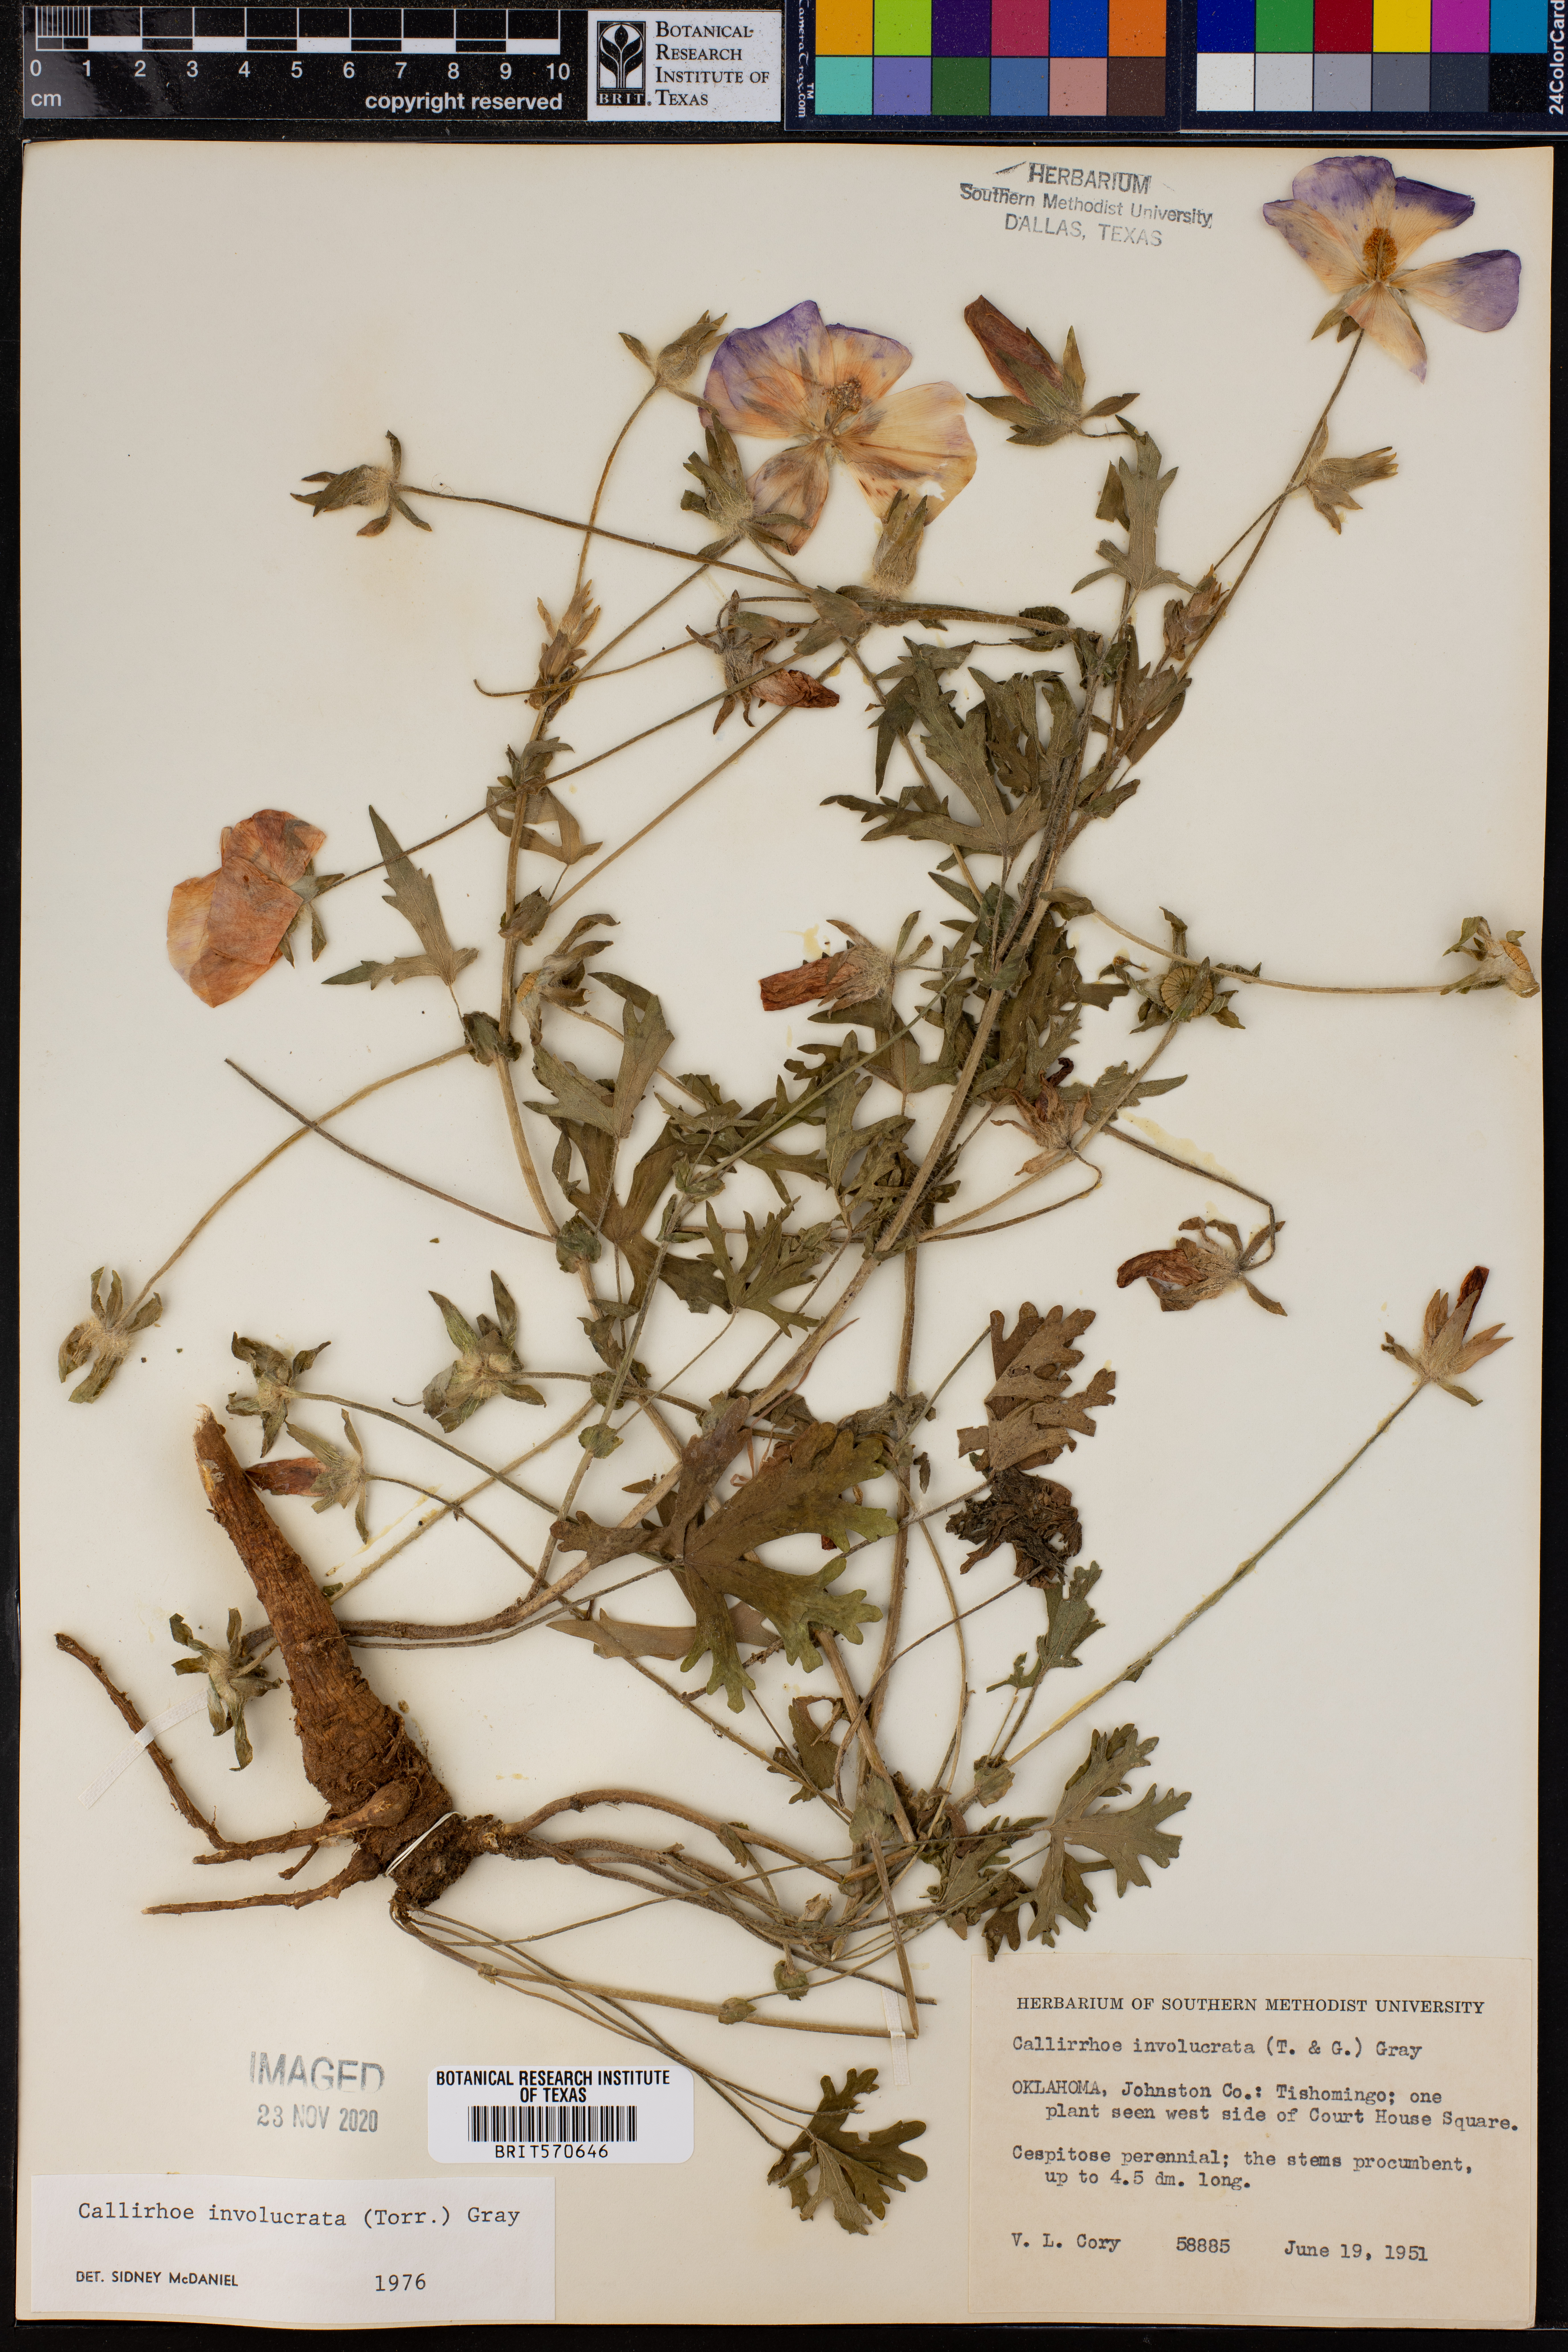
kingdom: Plantae
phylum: Tracheophyta
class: Magnoliopsida
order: Malvales
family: Malvaceae
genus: Callirhoe
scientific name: Callirhoe involucrata
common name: Purple poppy-mallow
